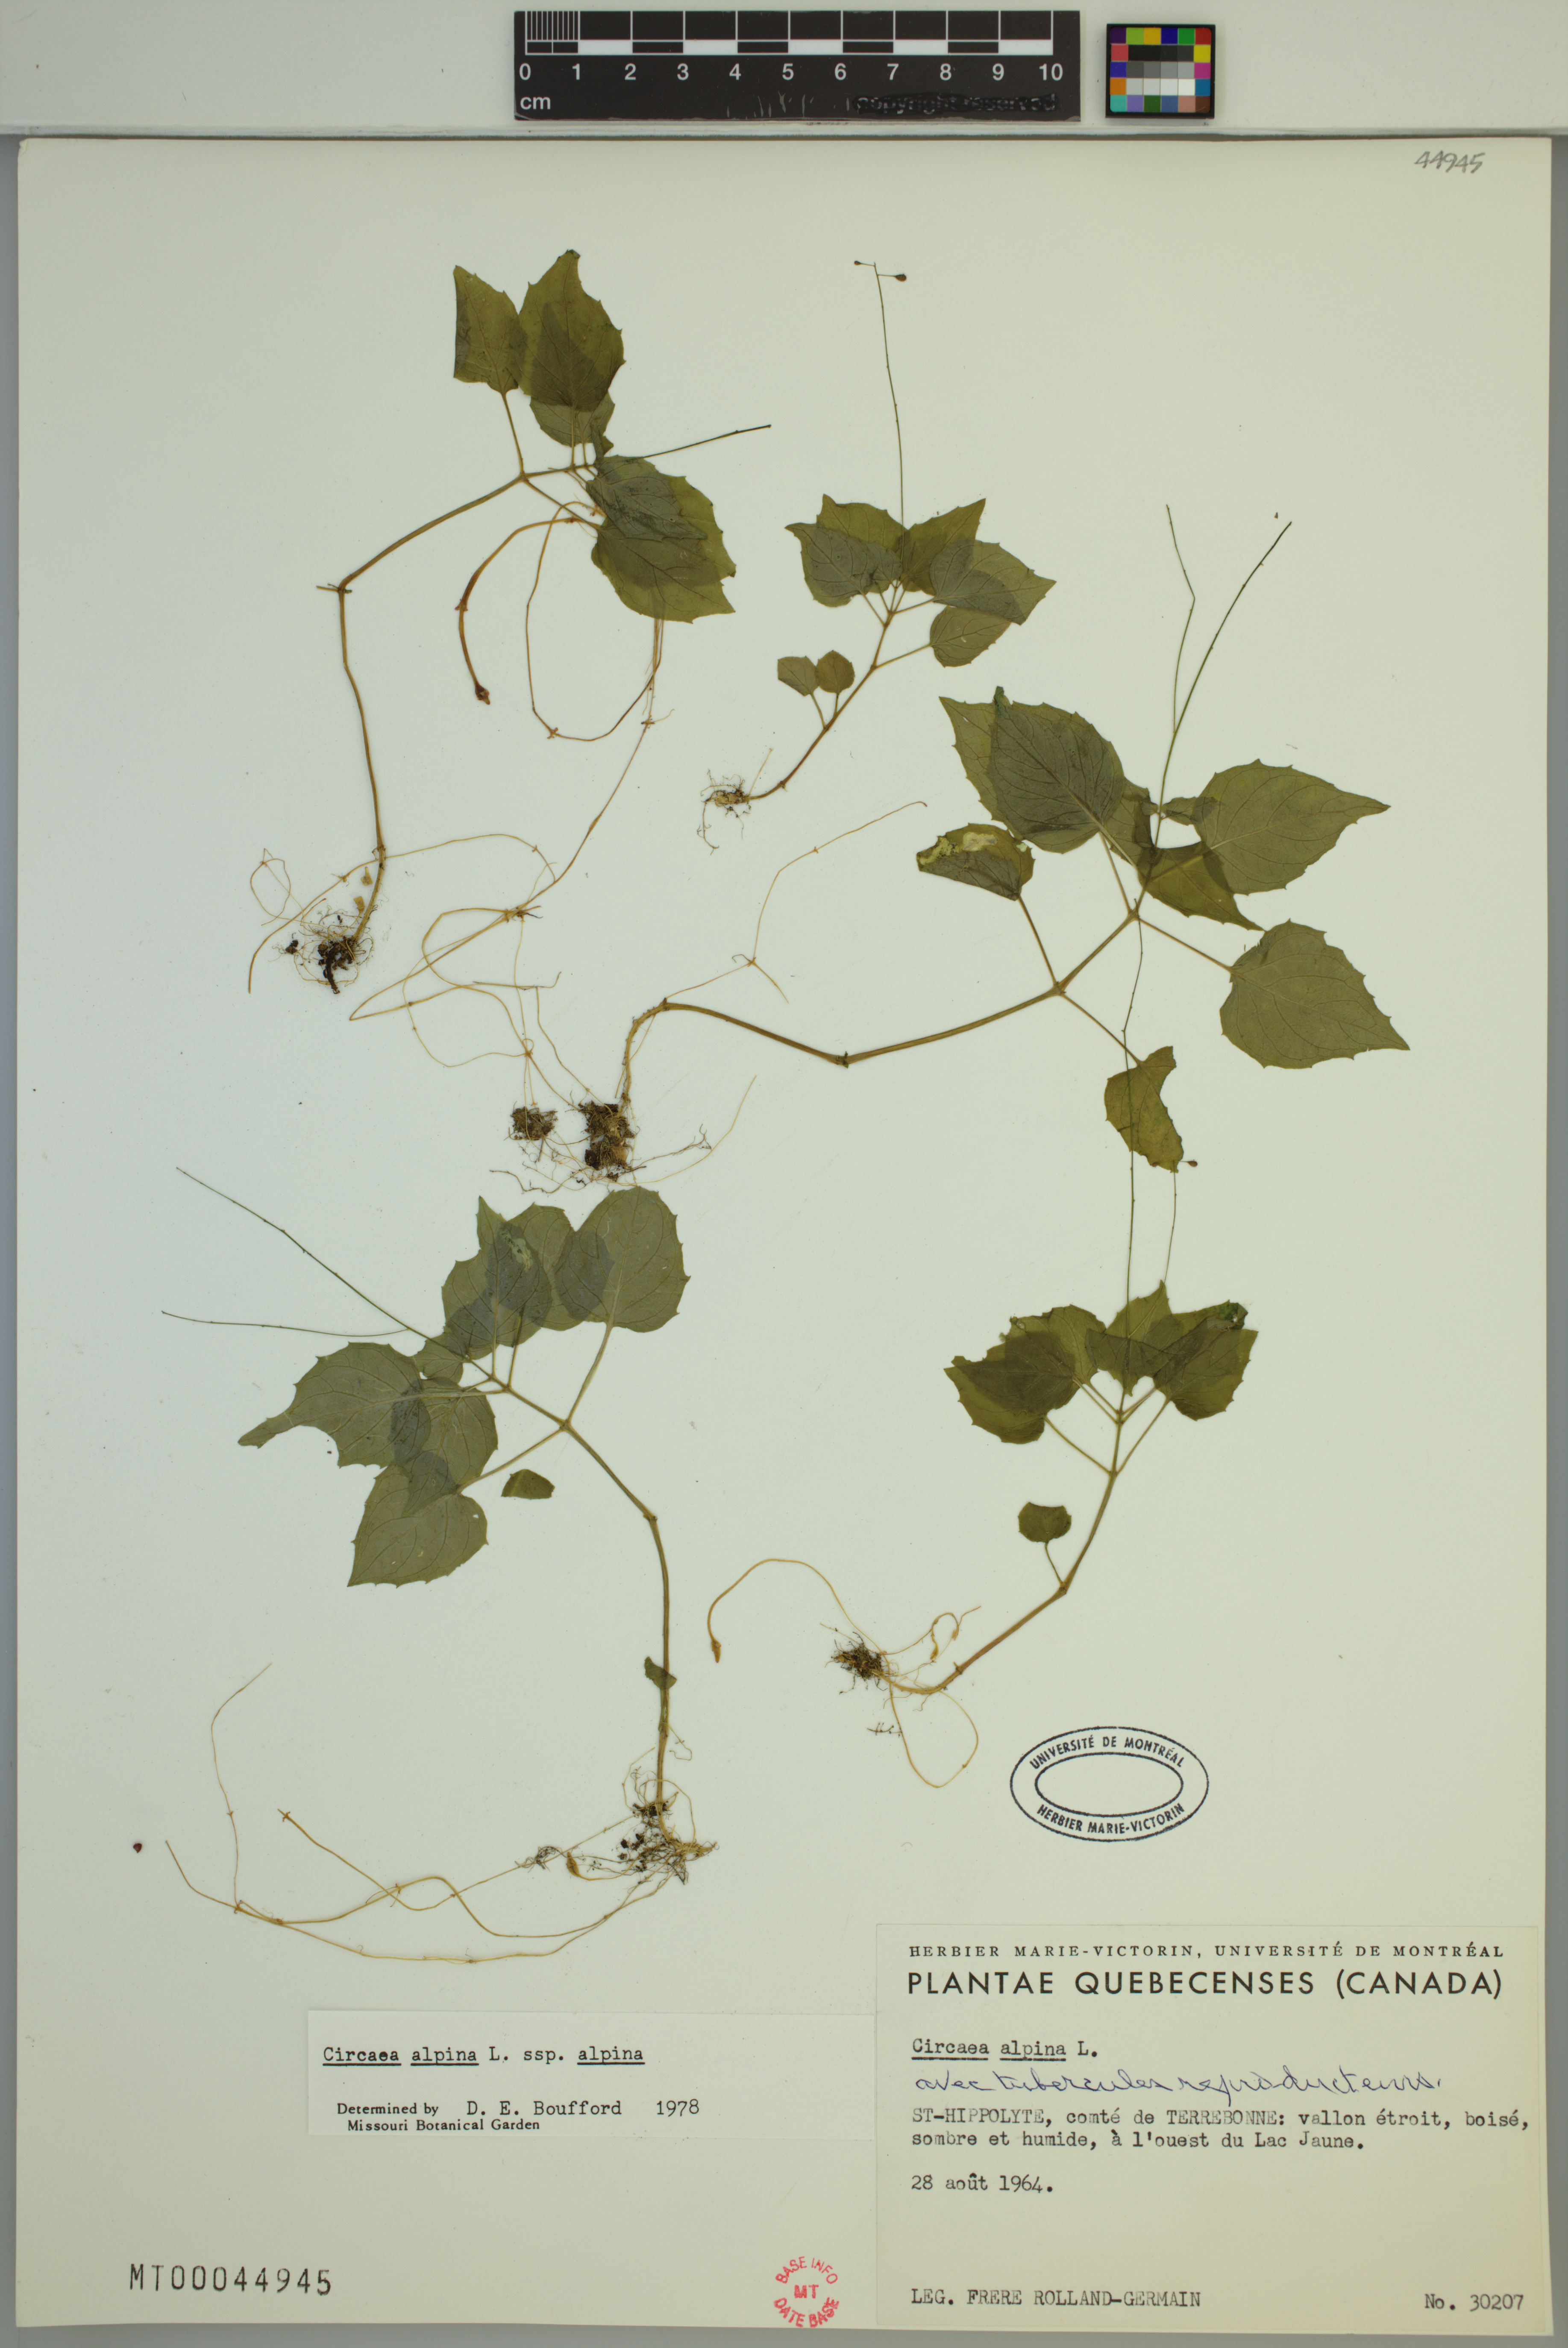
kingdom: Plantae
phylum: Tracheophyta
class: Magnoliopsida
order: Myrtales
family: Onagraceae
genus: Circaea
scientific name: Circaea alpina
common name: Alpine enchanter's-nightshade
